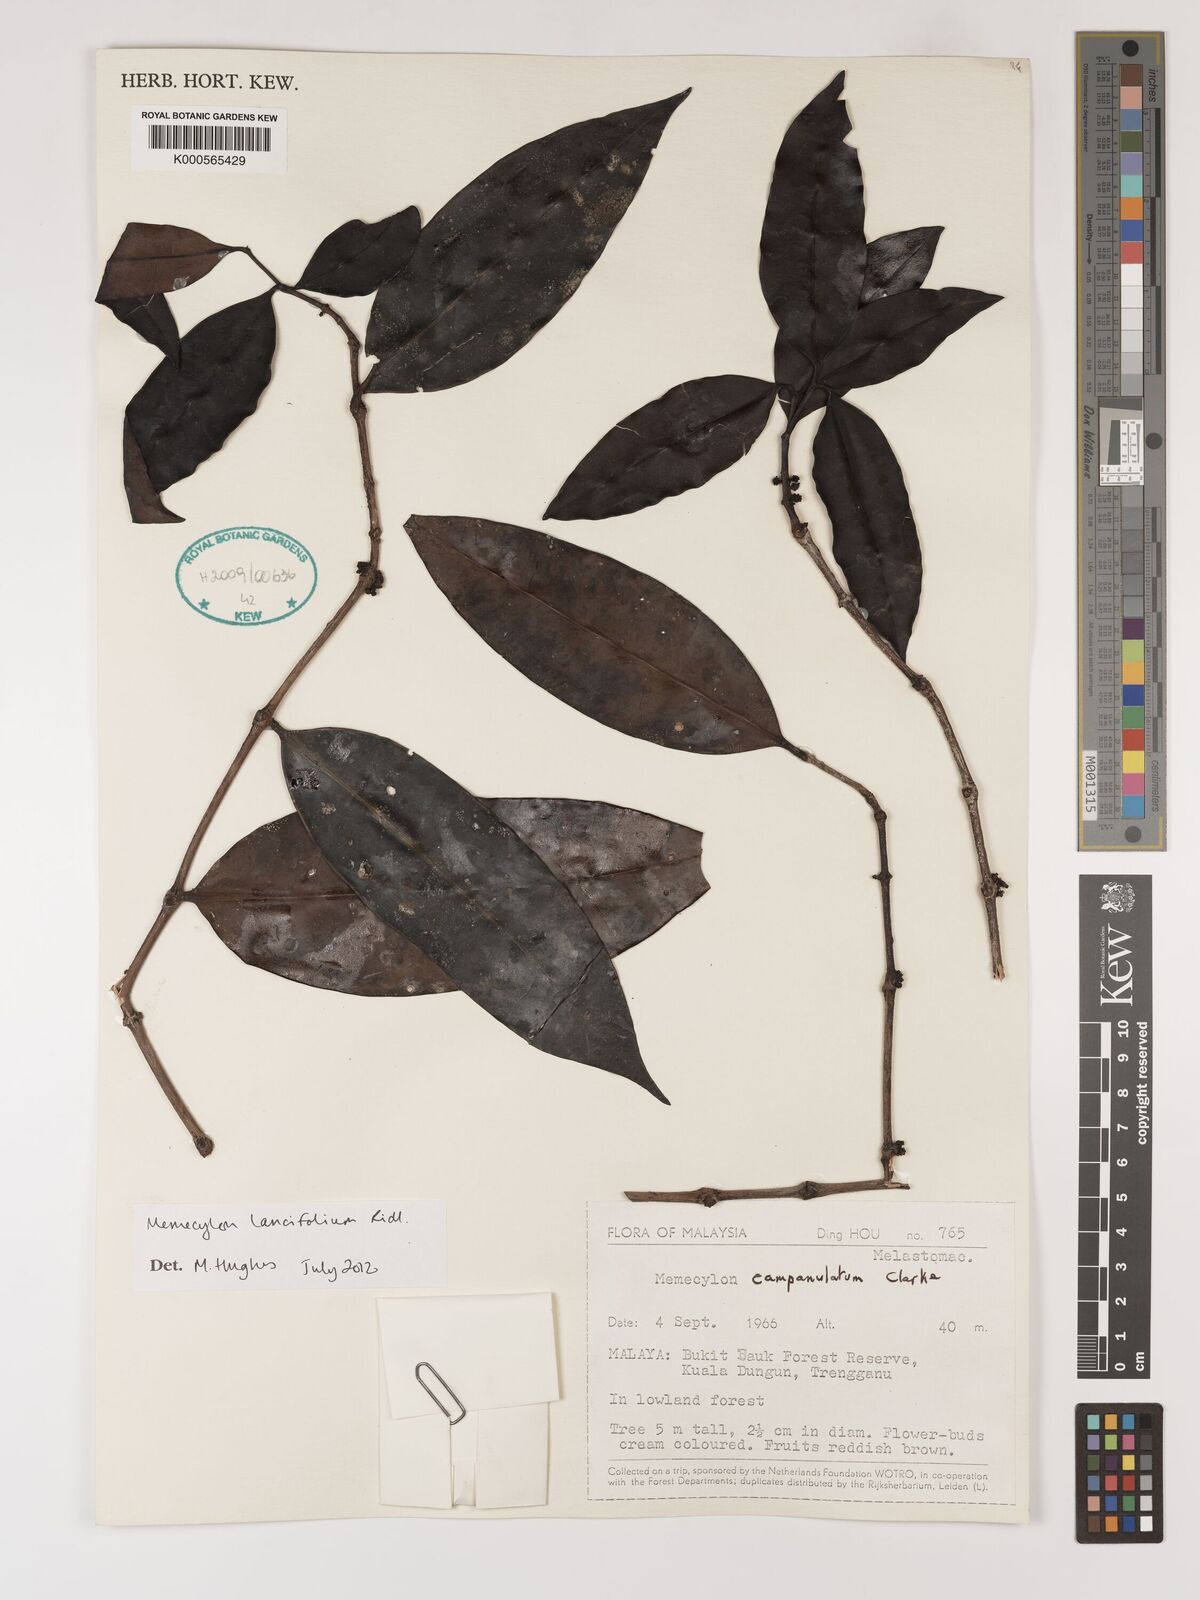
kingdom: Plantae
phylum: Tracheophyta
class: Magnoliopsida
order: Myrtales
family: Melastomataceae
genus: Memecylon
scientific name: Memecylon lancifolium
